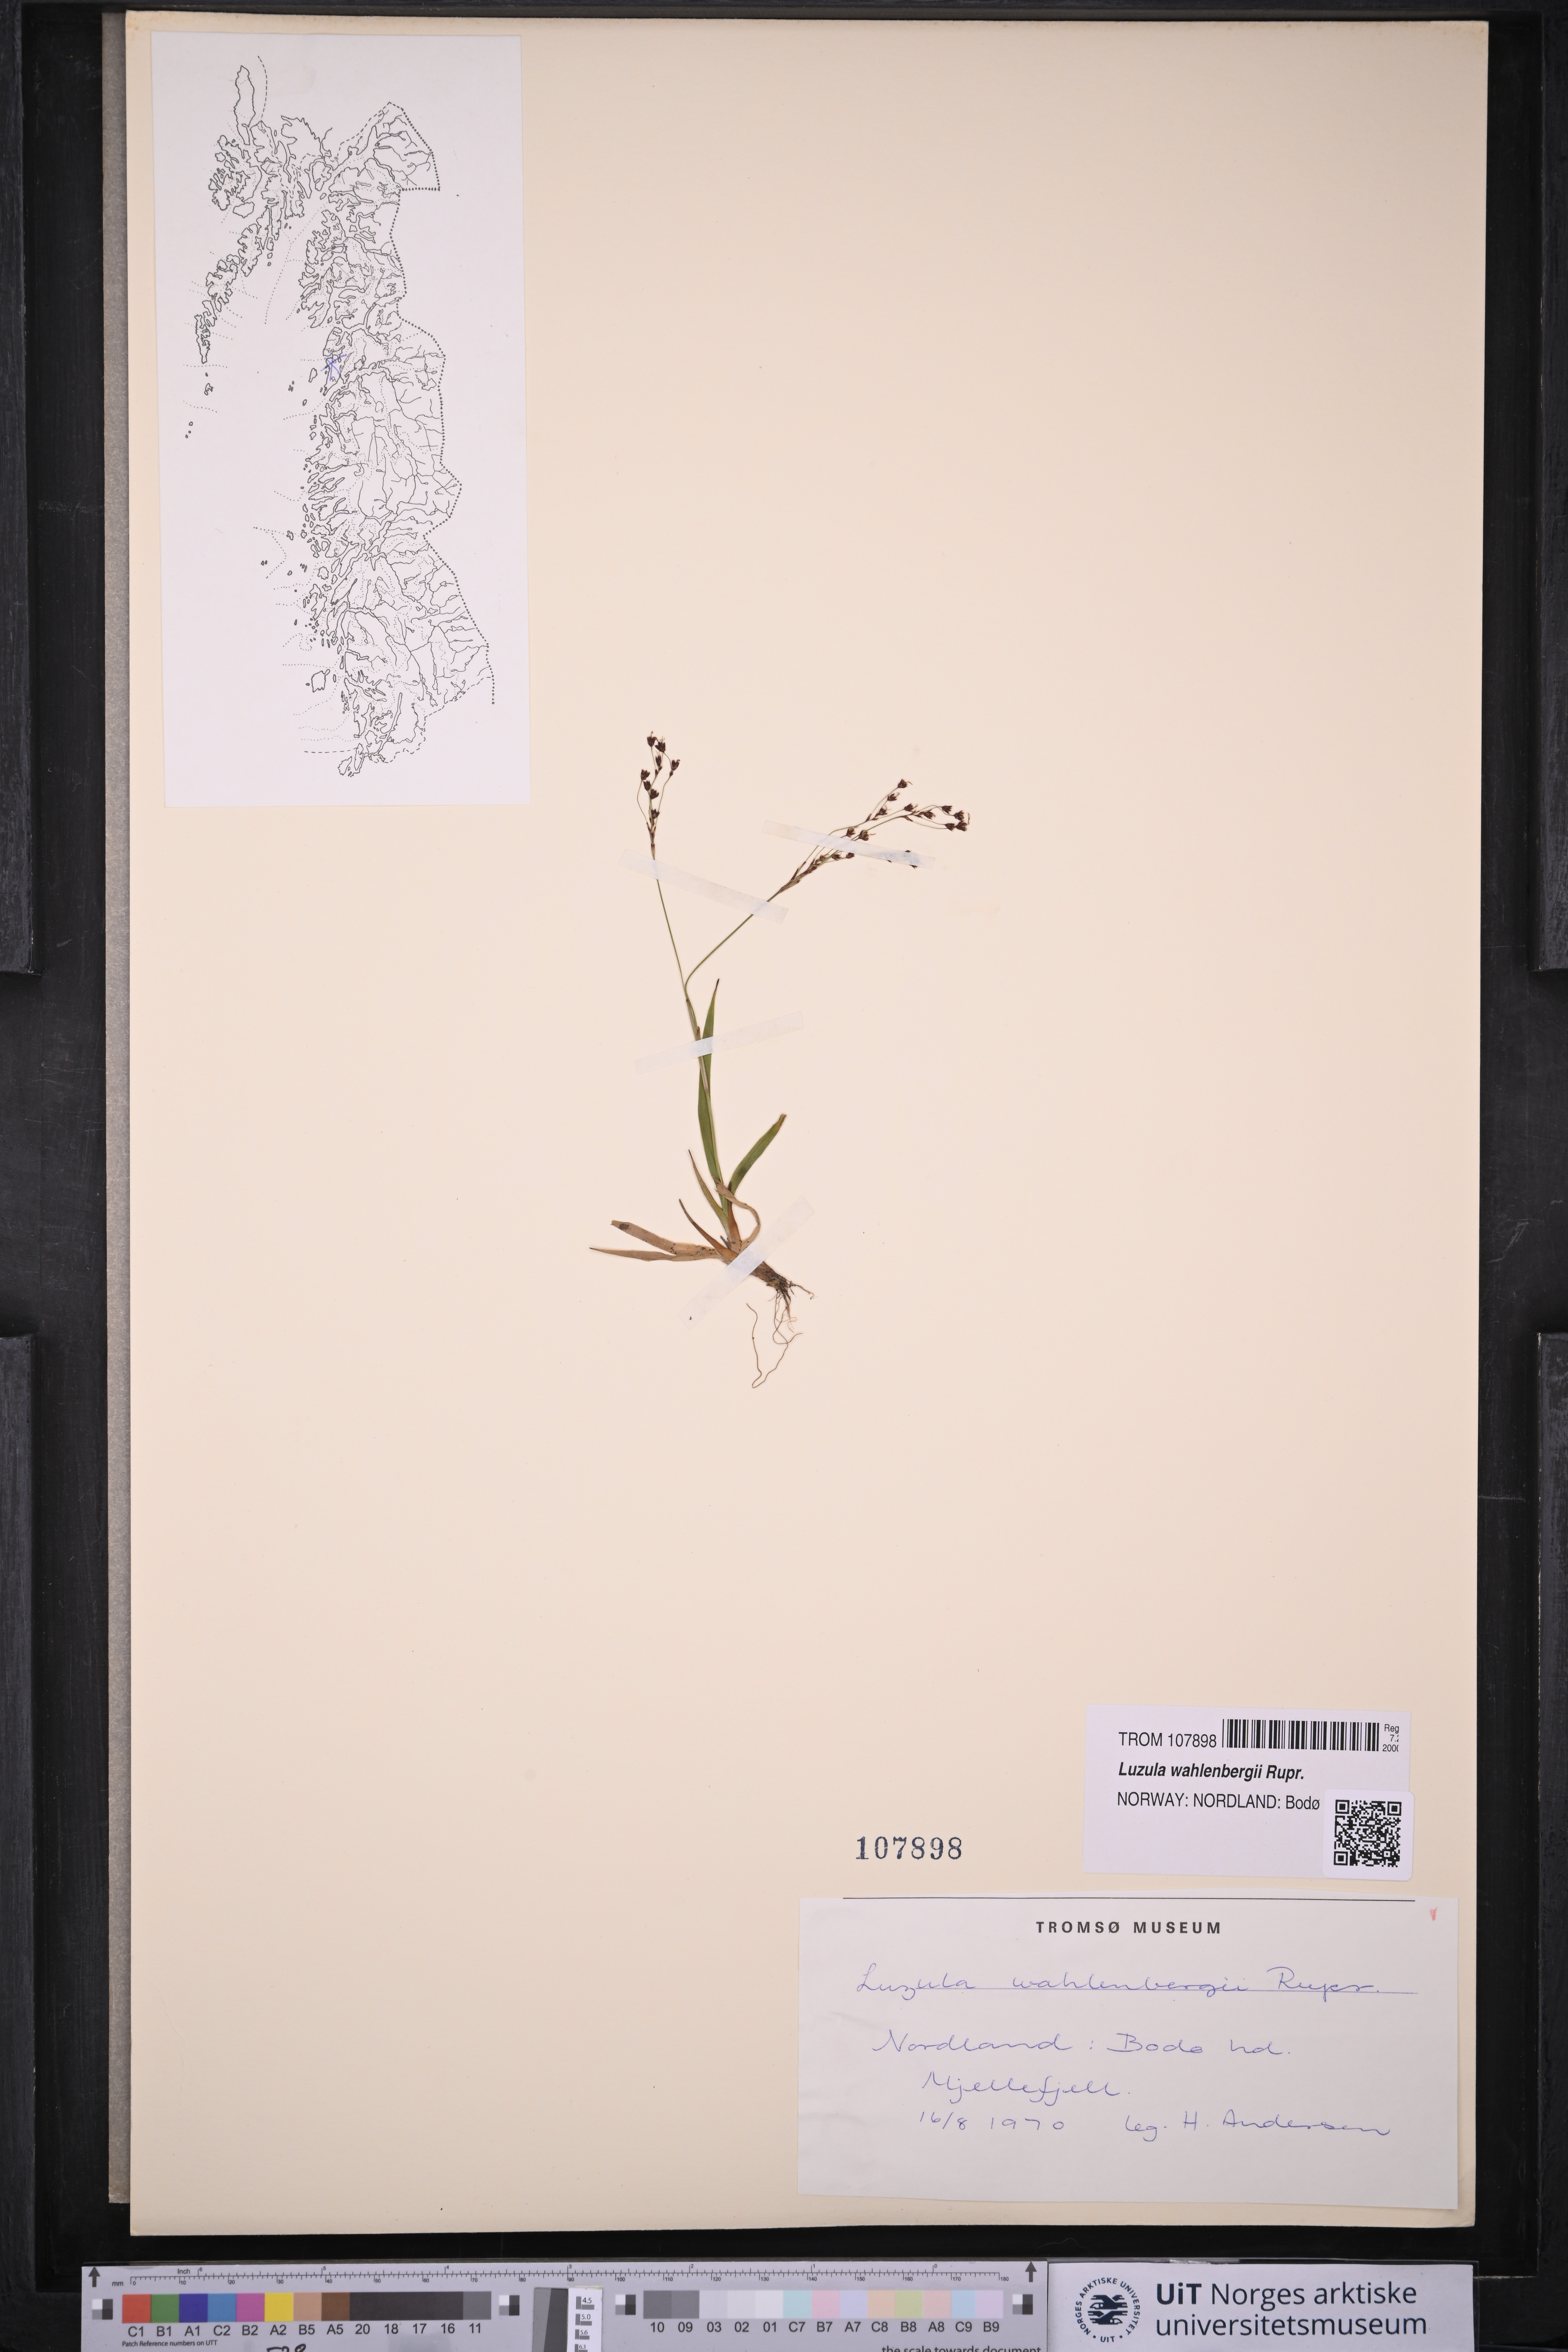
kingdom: Plantae
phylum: Tracheophyta
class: Liliopsida
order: Poales
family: Juncaceae
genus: Luzula
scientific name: Luzula wahlenbergii
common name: Wahlenberg's wood-rush
